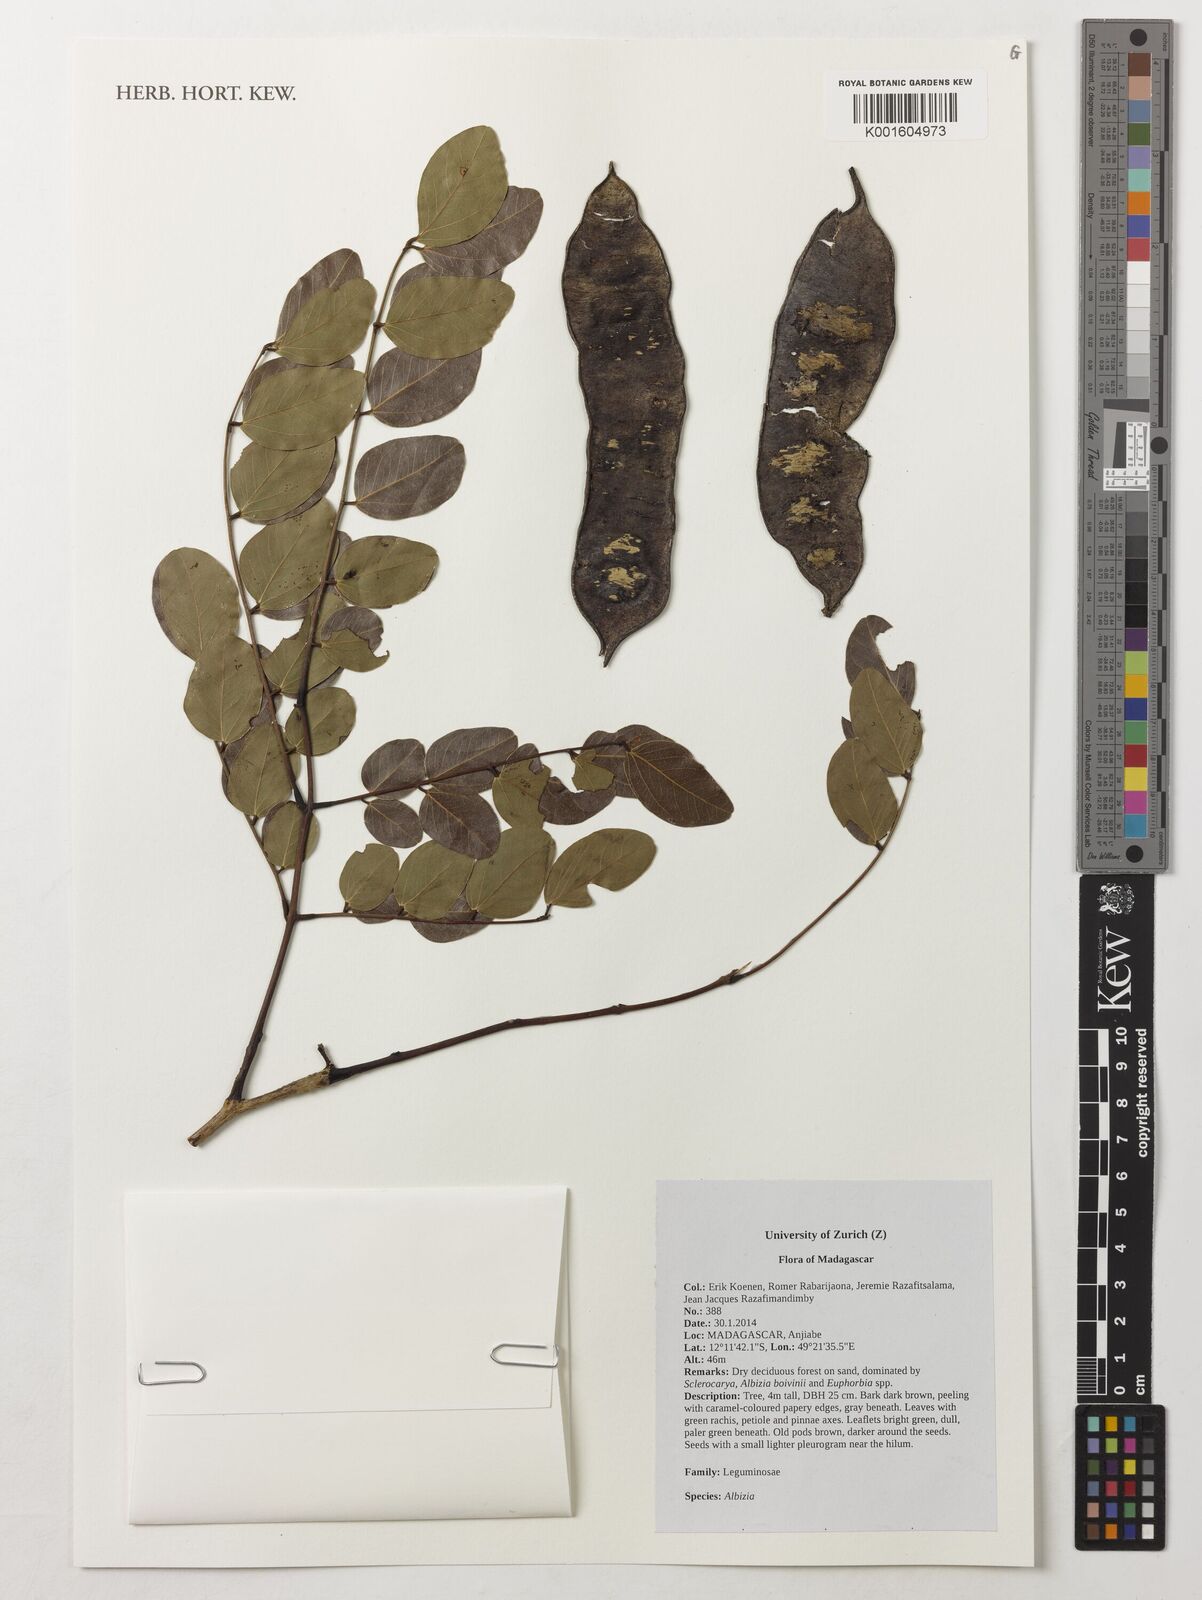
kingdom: Plantae
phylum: Tracheophyta
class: Magnoliopsida
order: Fabales
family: Fabaceae
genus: Albizia
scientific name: Albizia
